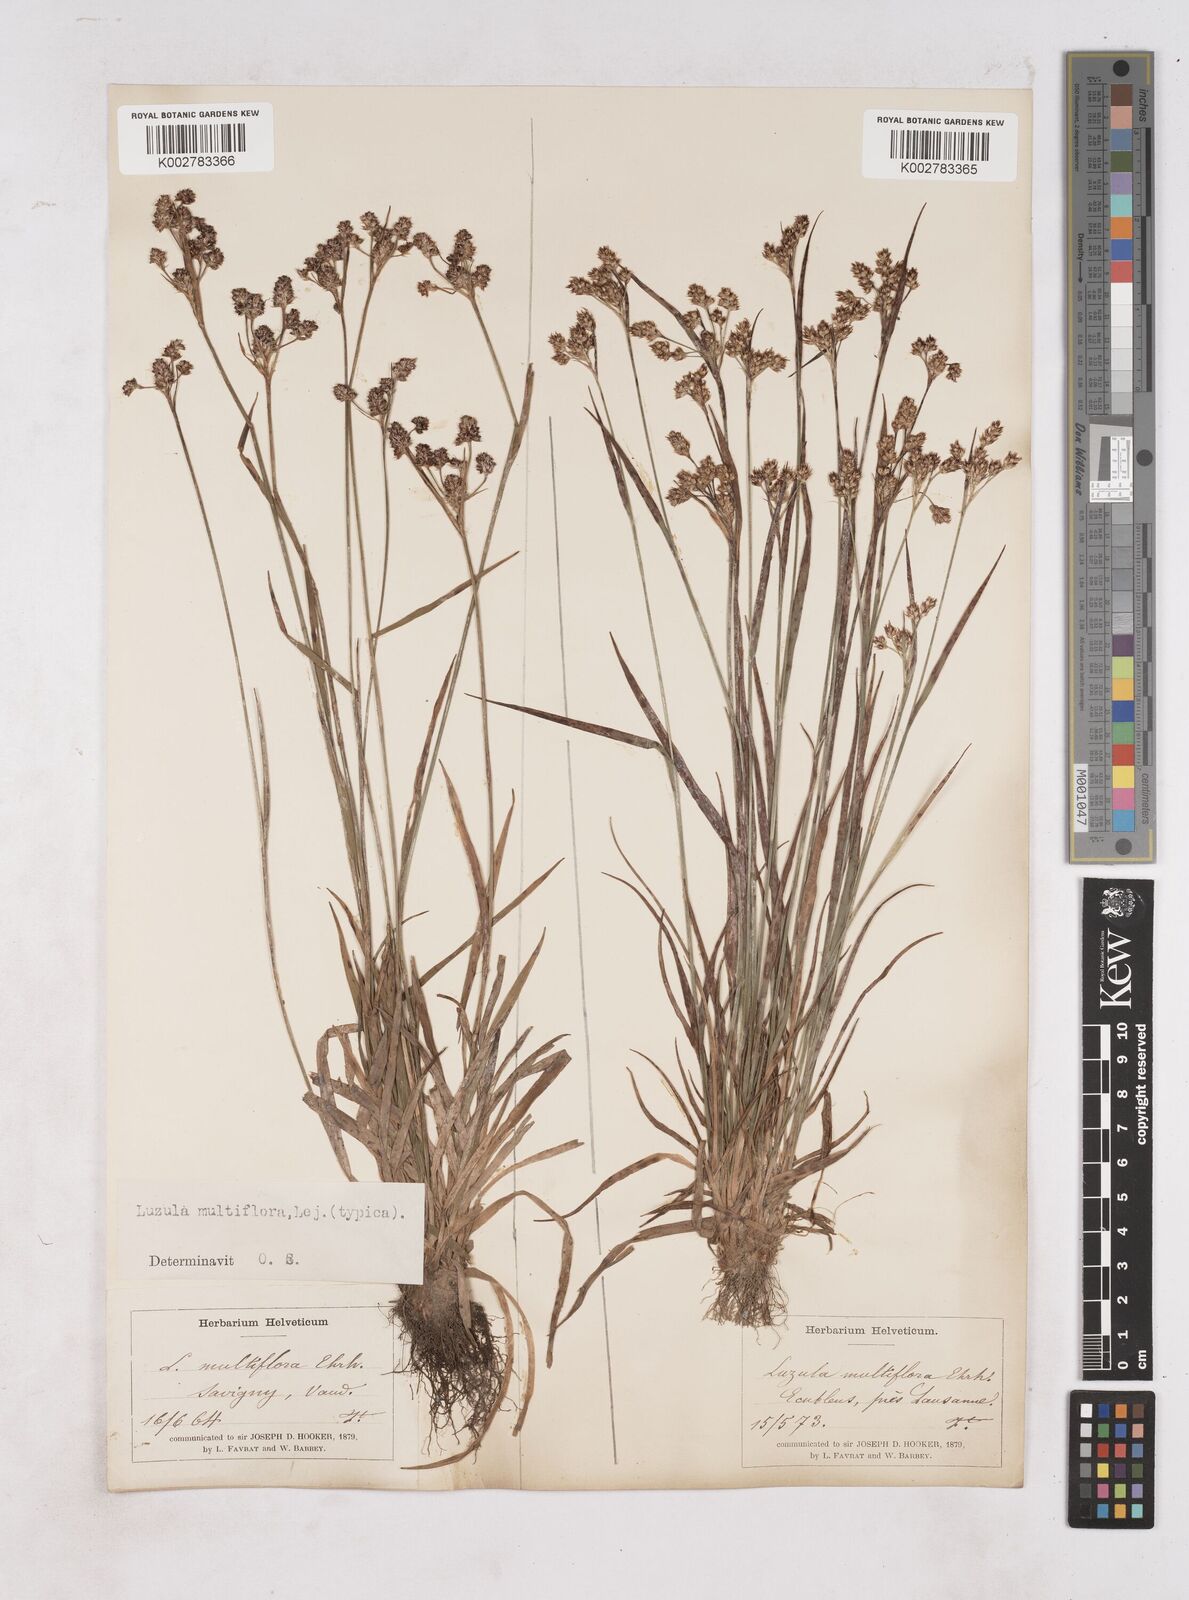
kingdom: Plantae
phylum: Tracheophyta
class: Liliopsida
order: Poales
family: Juncaceae
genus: Luzula
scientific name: Luzula multiflora
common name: Heath wood-rush
